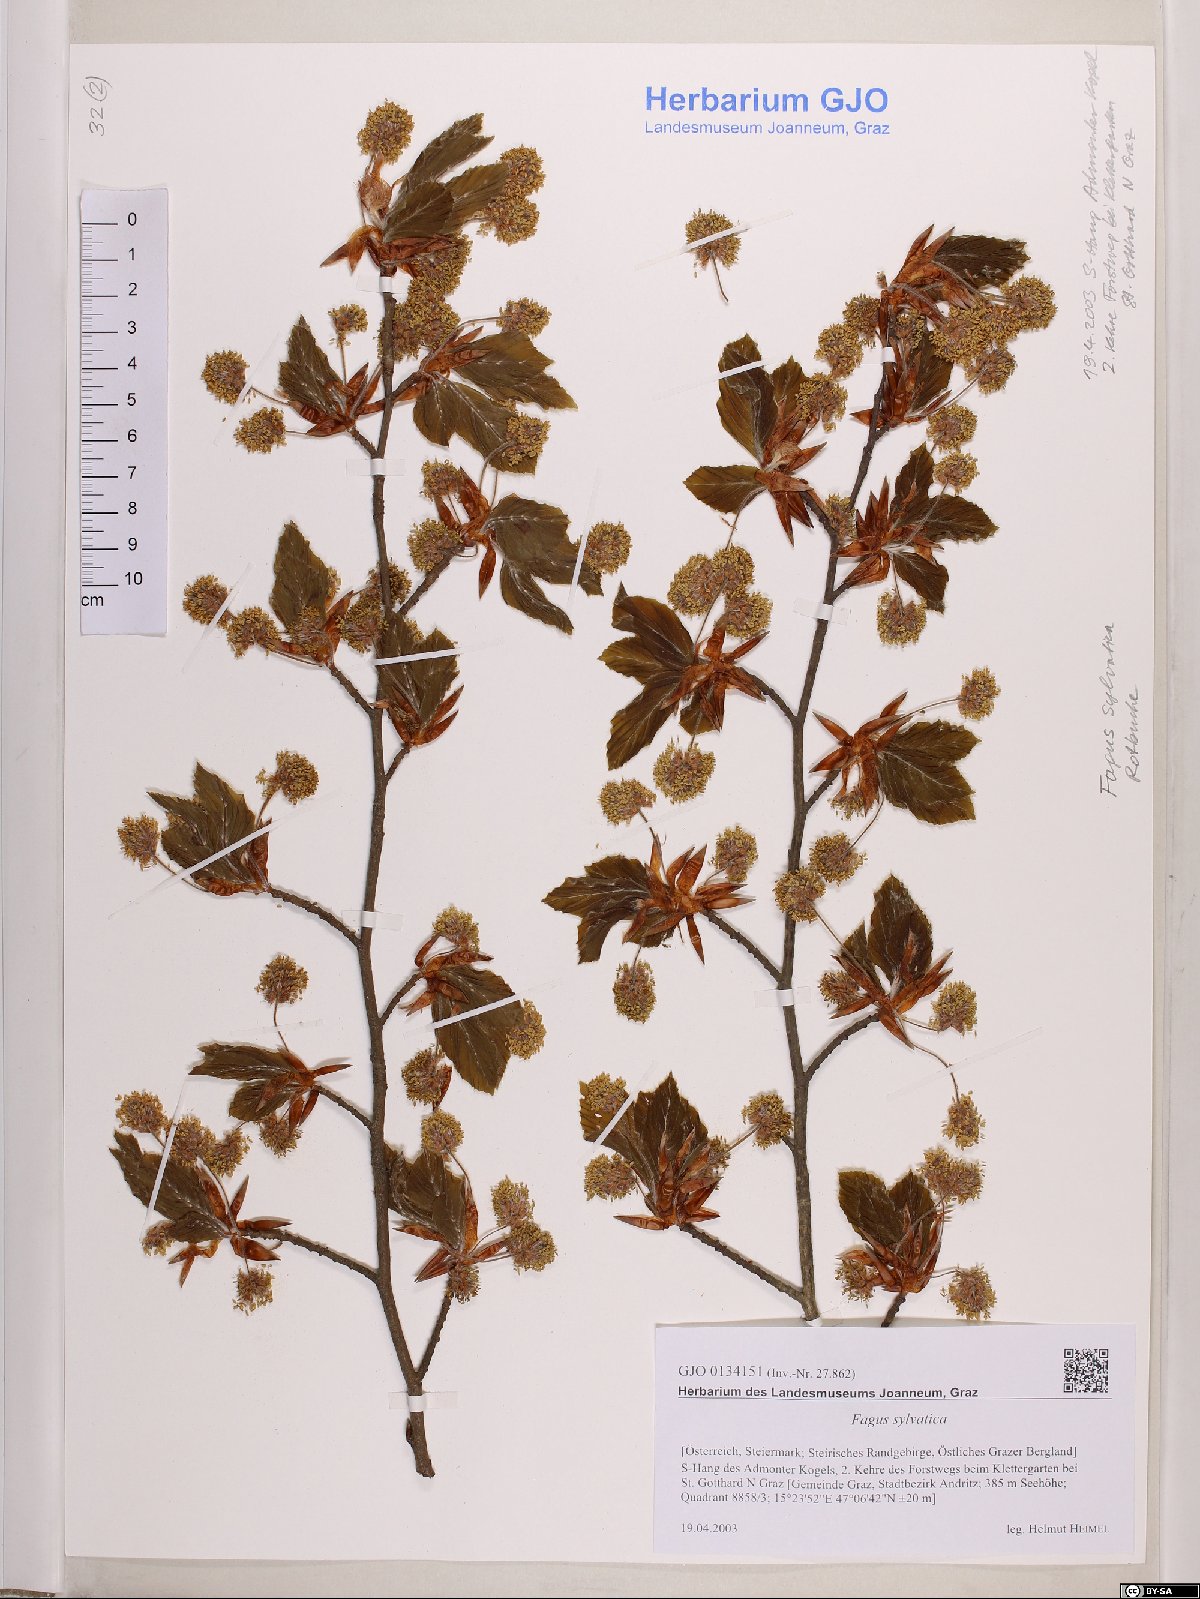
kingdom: Plantae
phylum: Tracheophyta
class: Magnoliopsida
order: Fagales
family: Fagaceae
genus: Fagus
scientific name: Fagus sylvatica
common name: Beech
